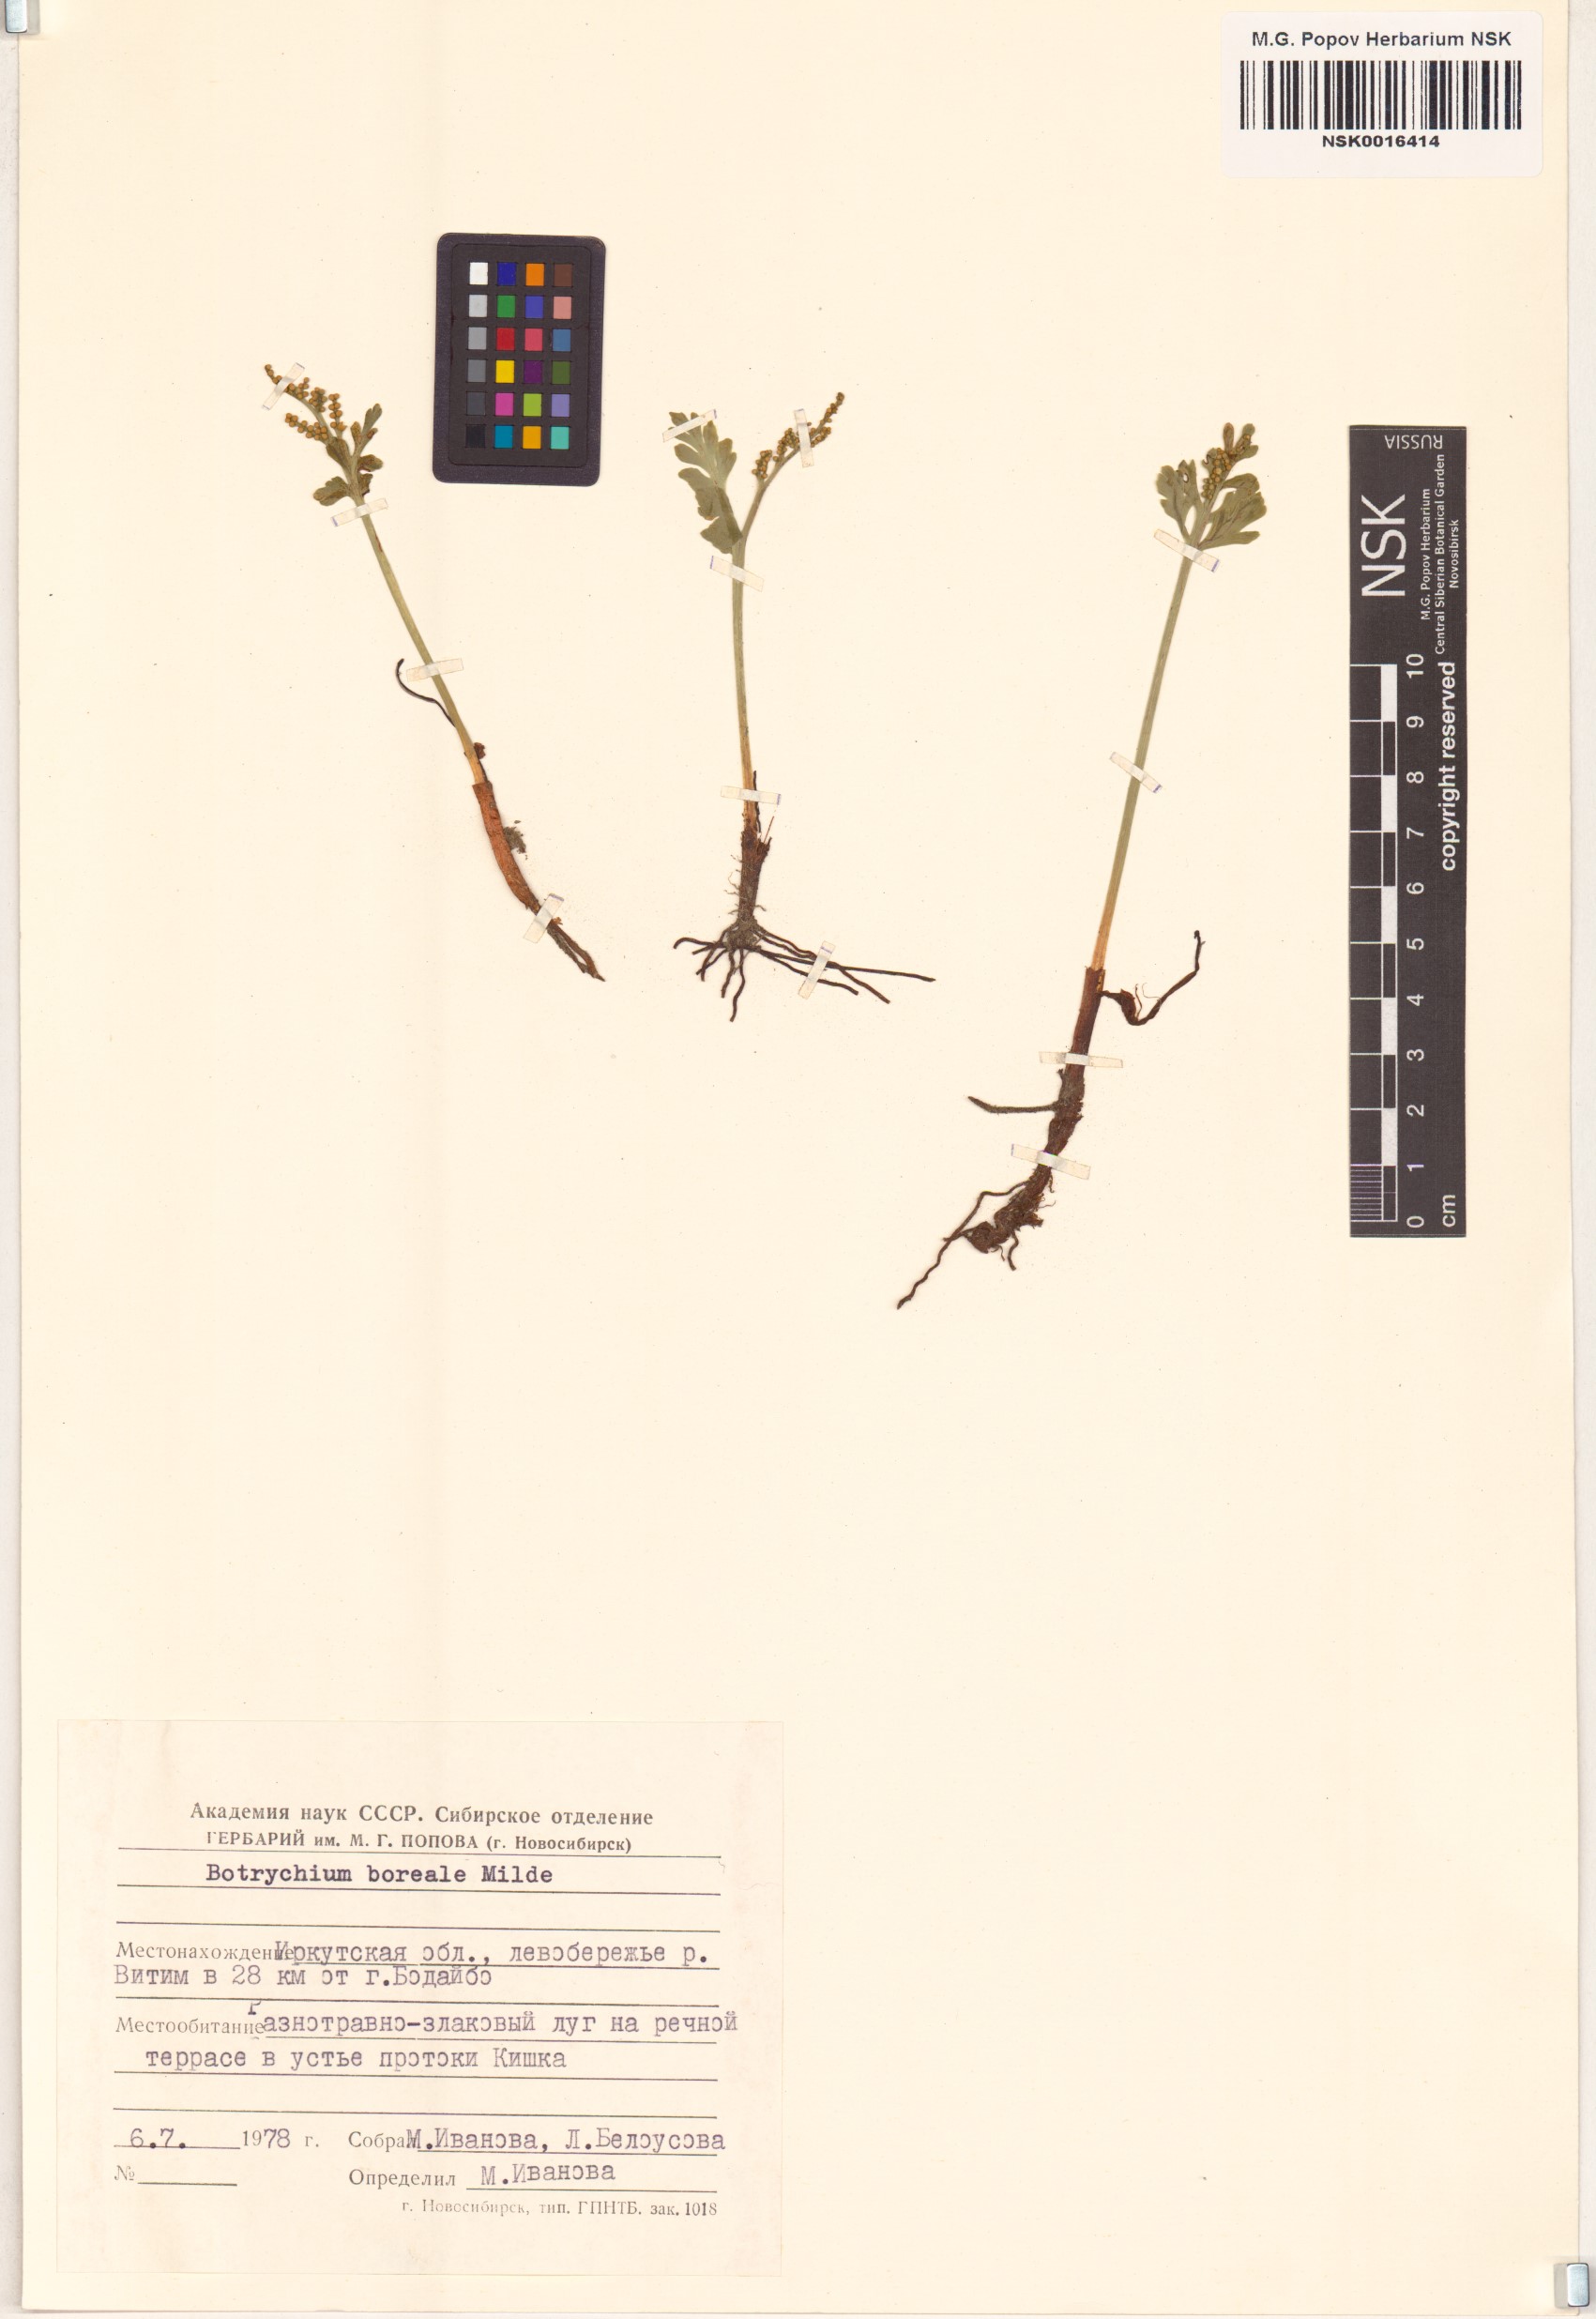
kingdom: Plantae
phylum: Tracheophyta
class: Polypodiopsida
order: Ophioglossales
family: Ophioglossaceae
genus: Botrychium
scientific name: Botrychium boreale
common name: Boreal moonwort
